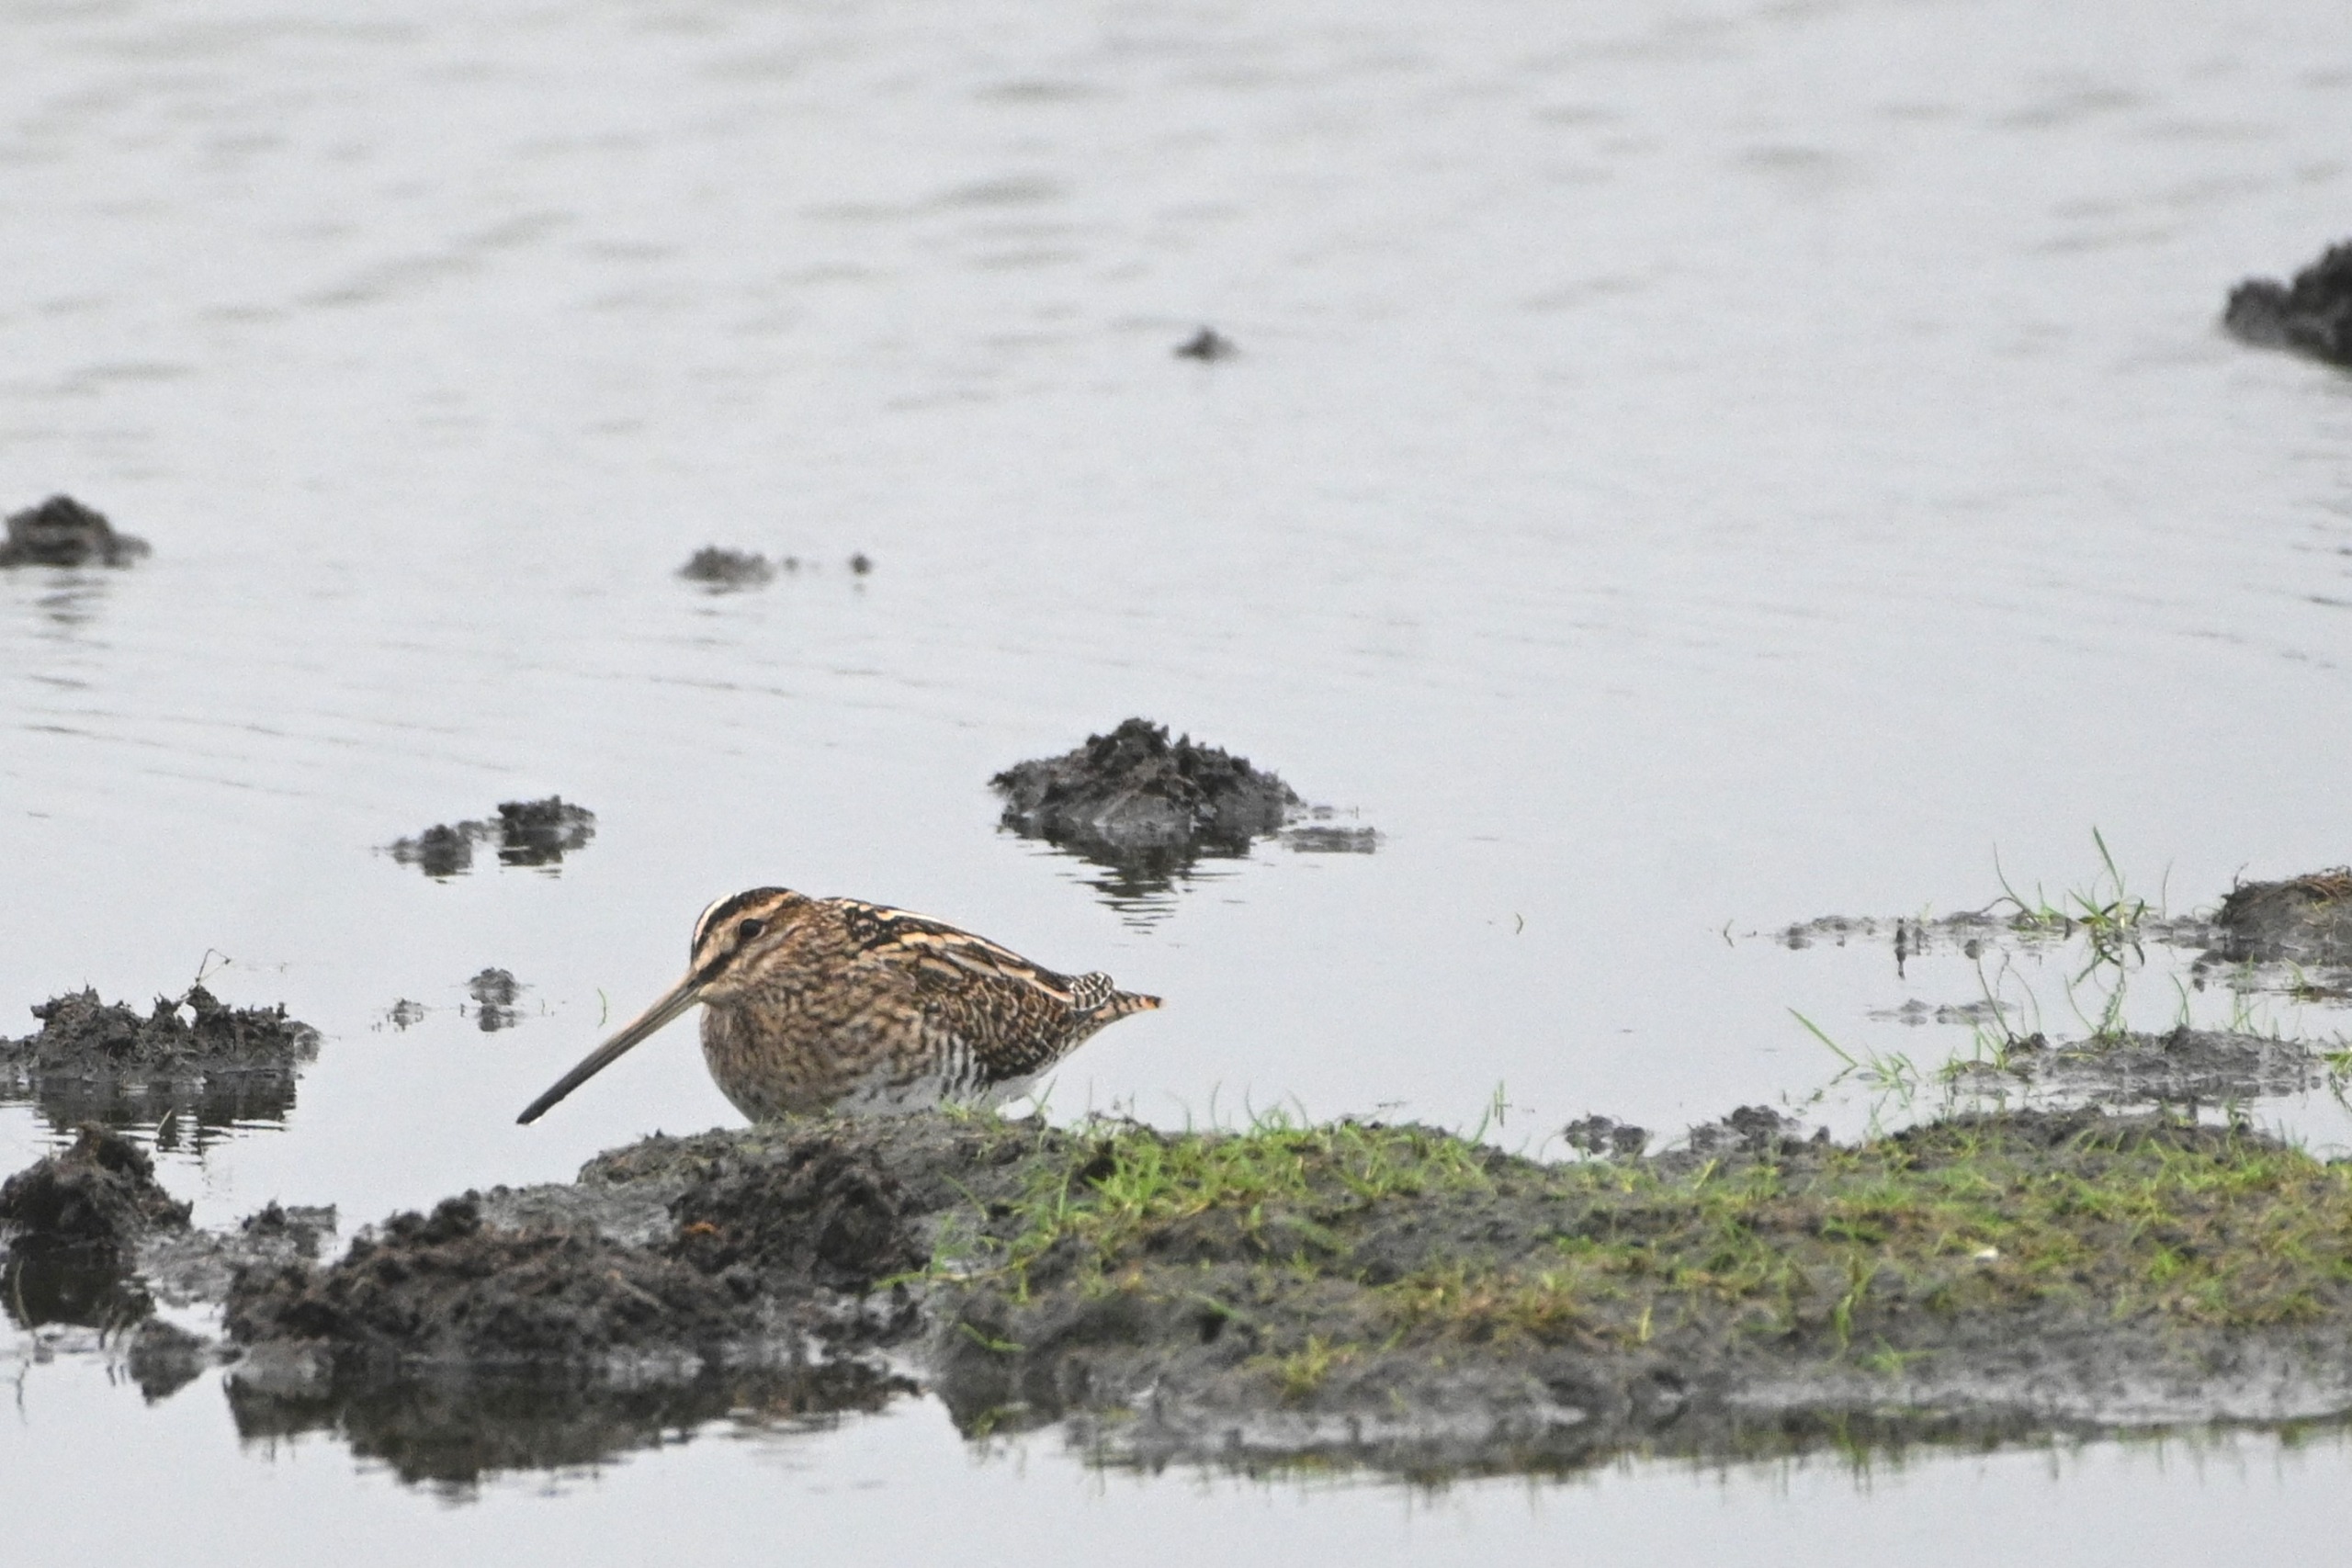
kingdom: Animalia
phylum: Chordata
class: Aves
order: Charadriiformes
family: Scolopacidae
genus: Gallinago
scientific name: Gallinago gallinago
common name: Dobbeltbekkasin
